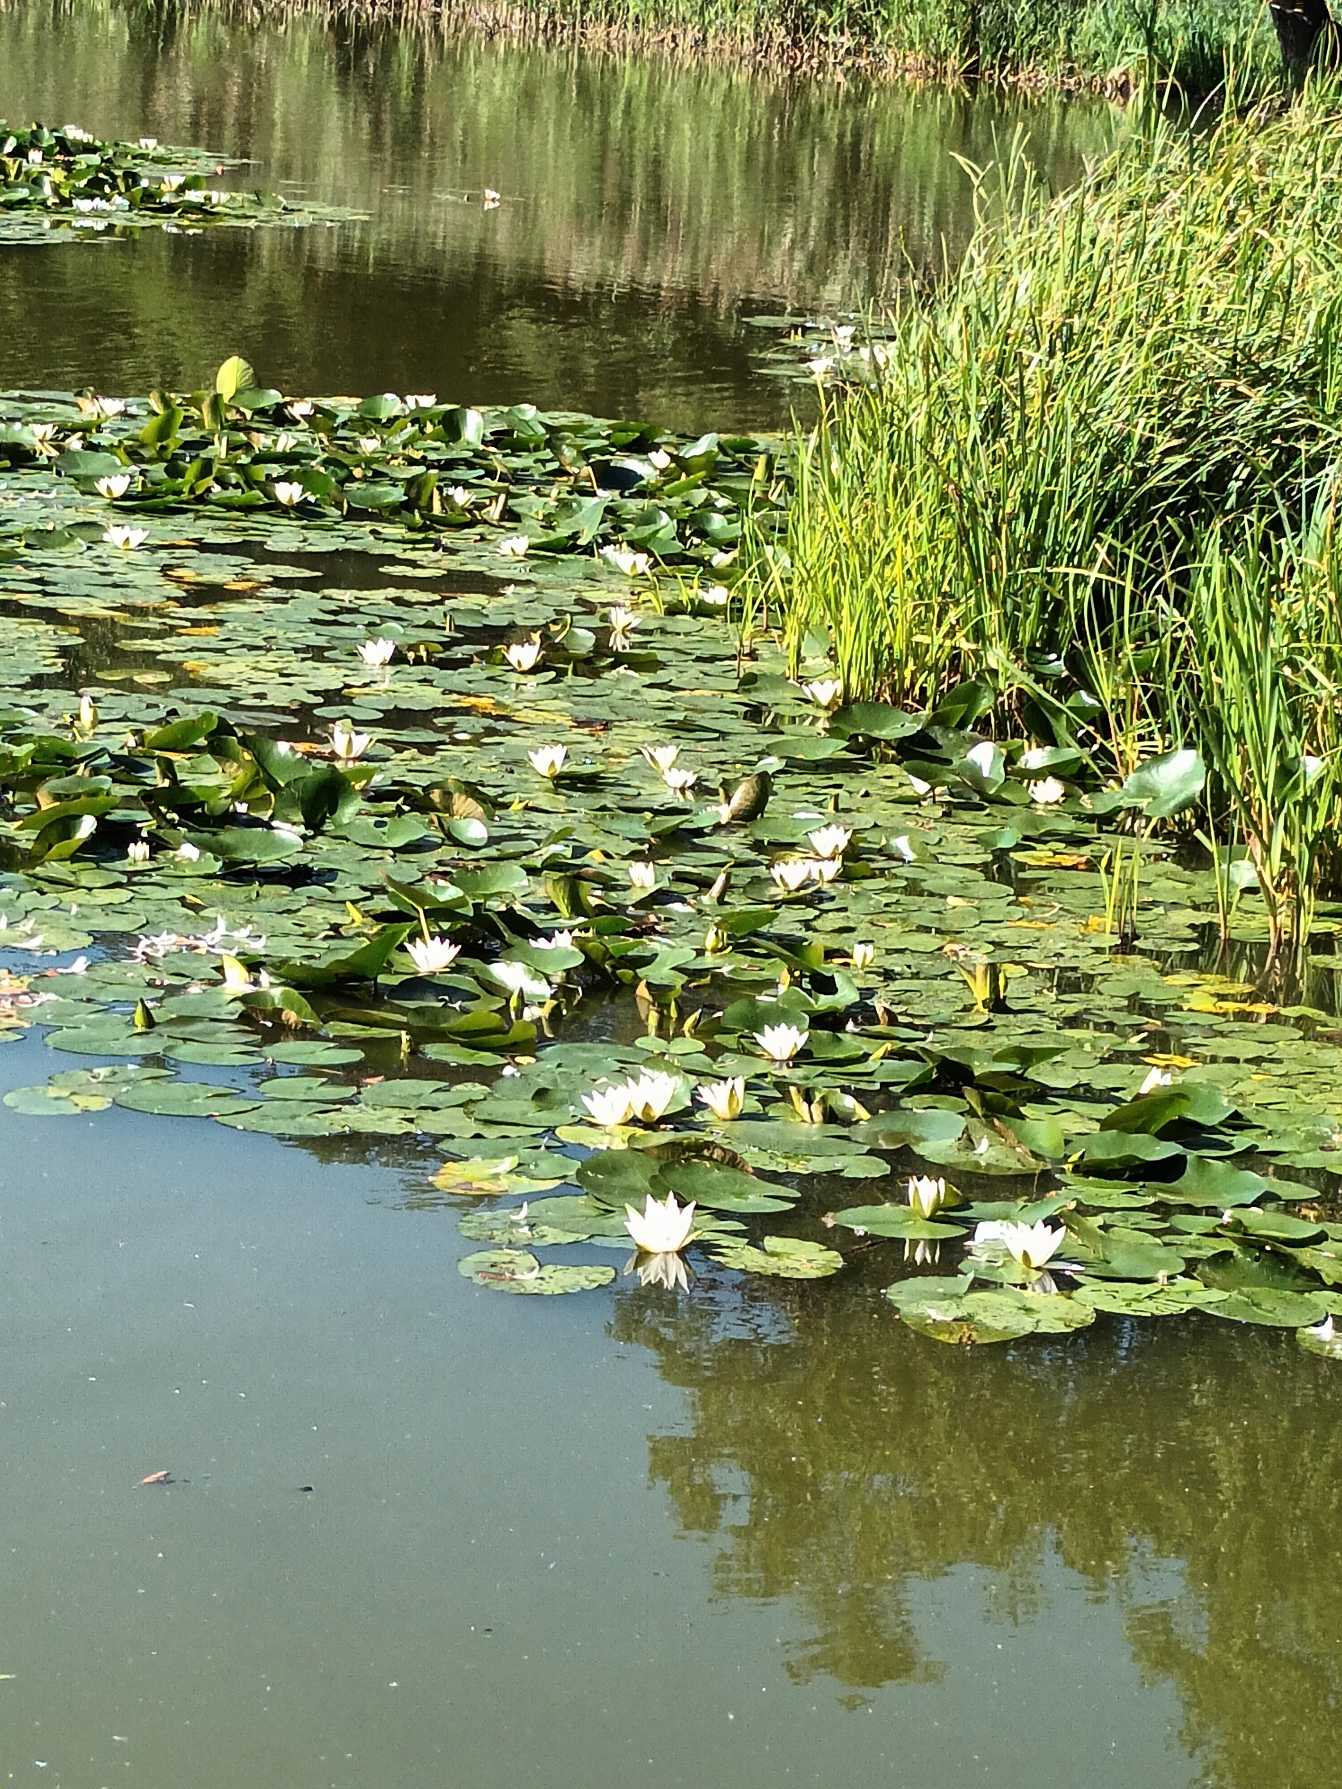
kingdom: Plantae
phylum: Tracheophyta
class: Magnoliopsida
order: Nymphaeales
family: Nymphaeaceae
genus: Nymphaea
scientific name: Nymphaea alba
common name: Hvid åkande
